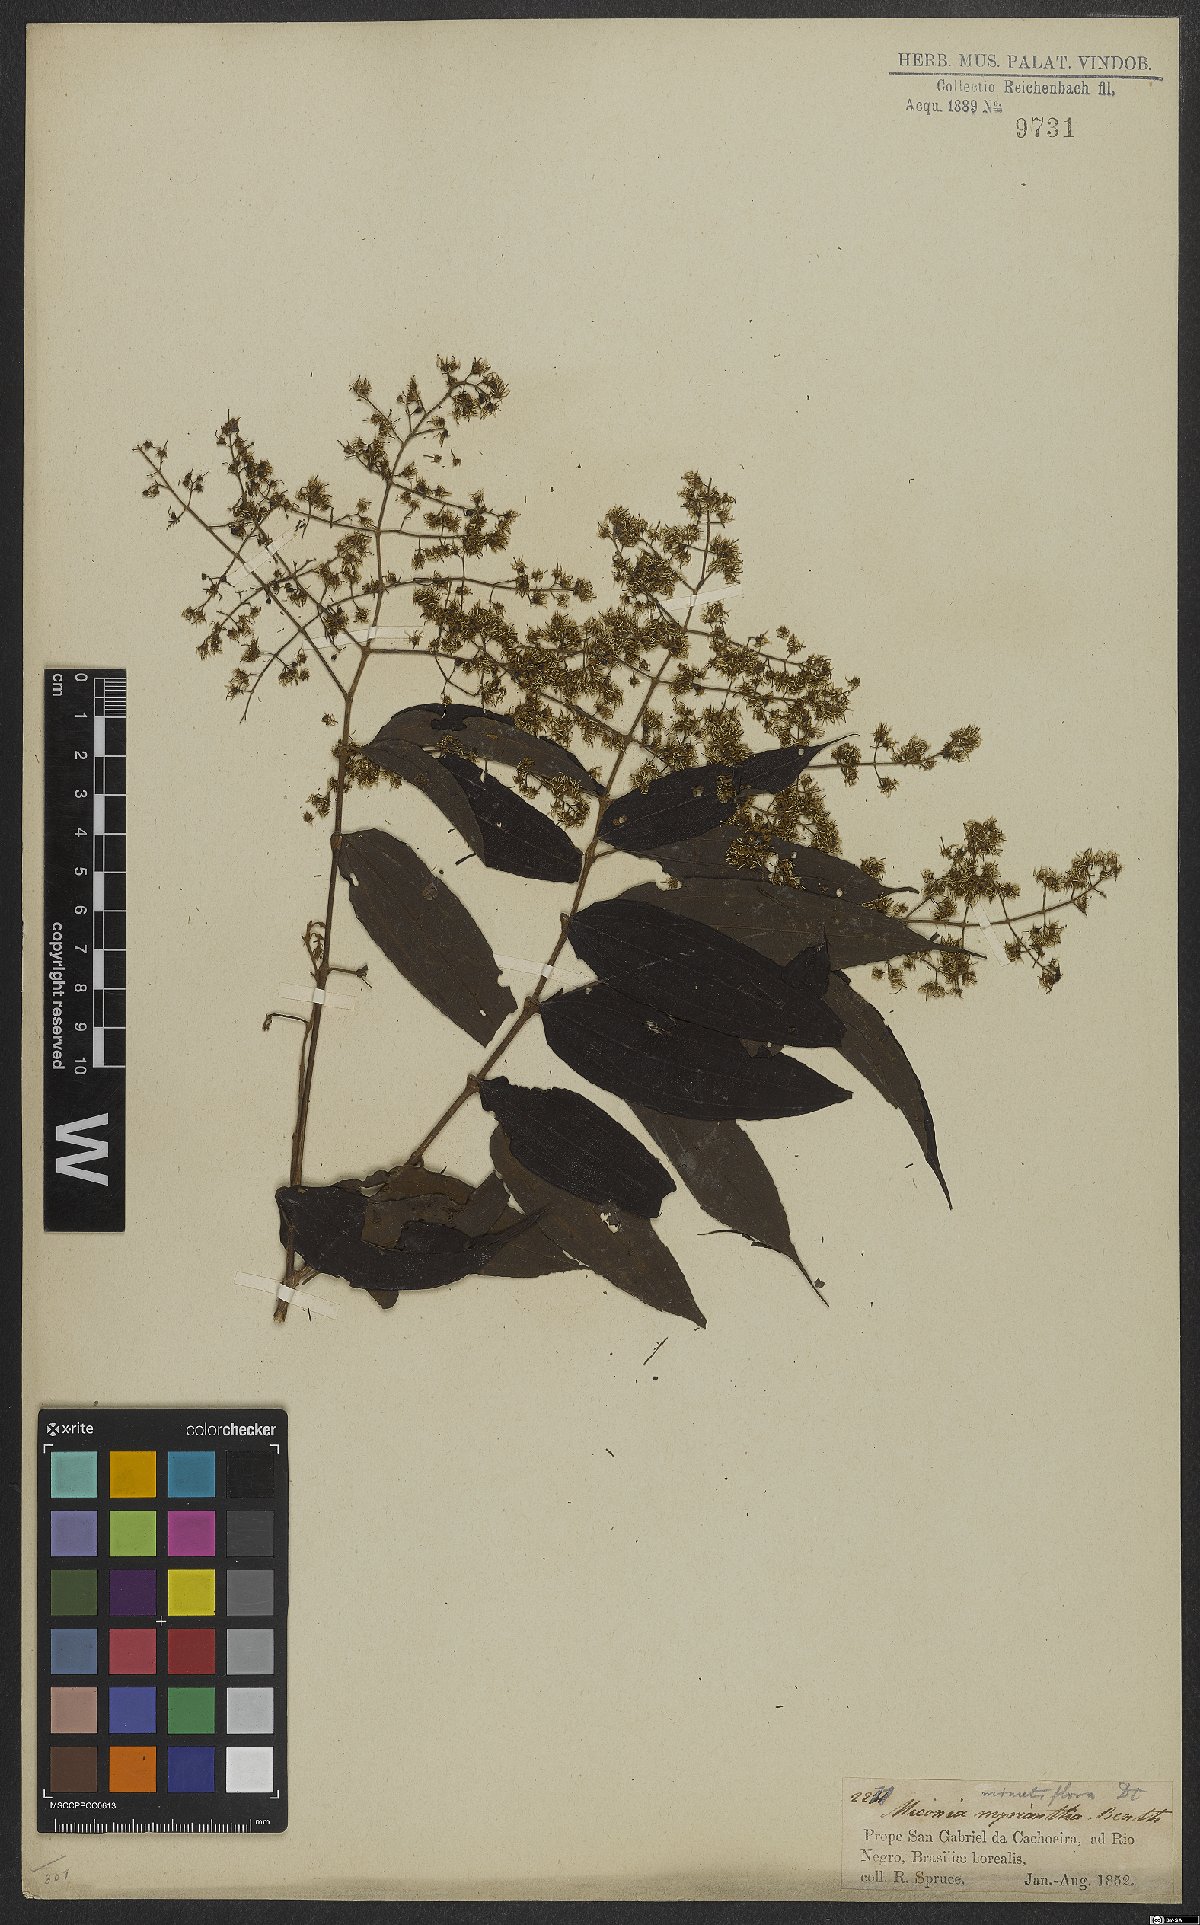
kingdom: Plantae
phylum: Tracheophyta
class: Magnoliopsida
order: Myrtales
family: Melastomataceae
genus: Miconia
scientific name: Miconia minutiflora
